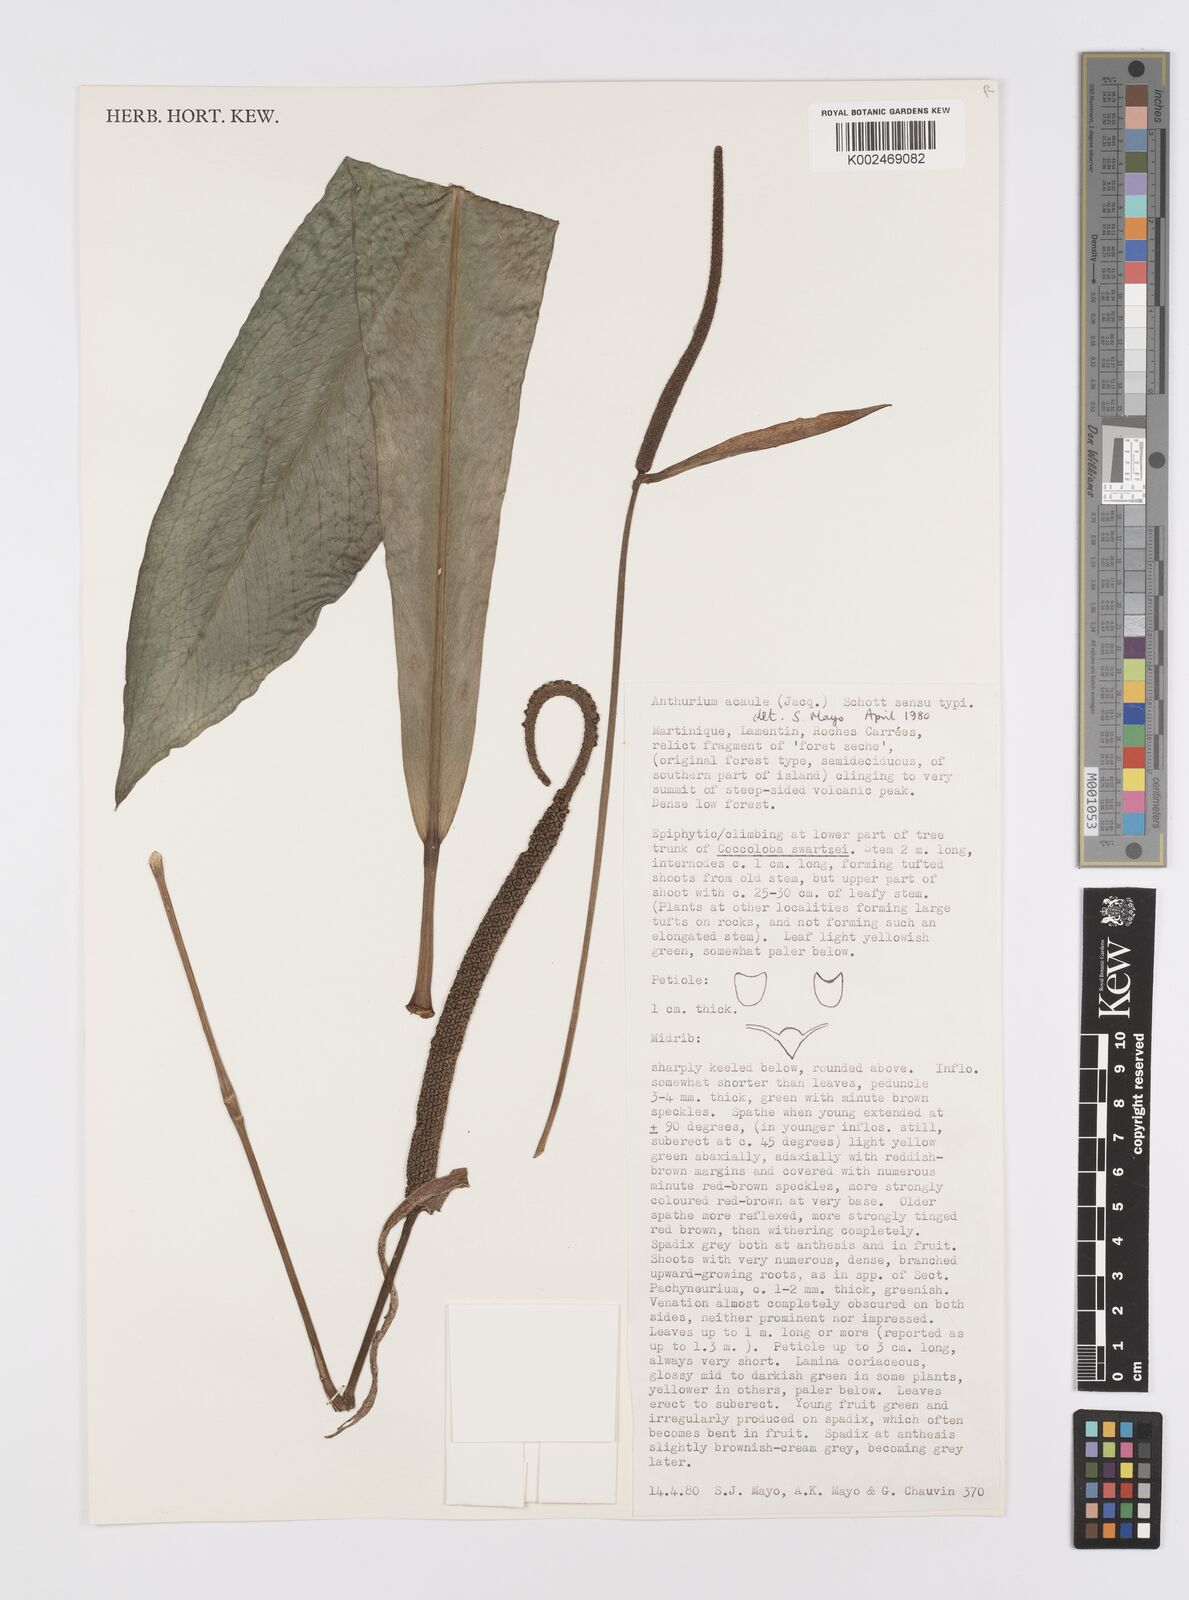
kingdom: Plantae
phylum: Tracheophyta
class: Liliopsida
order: Alismatales
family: Araceae
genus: Anthurium
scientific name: Anthurium acaule
